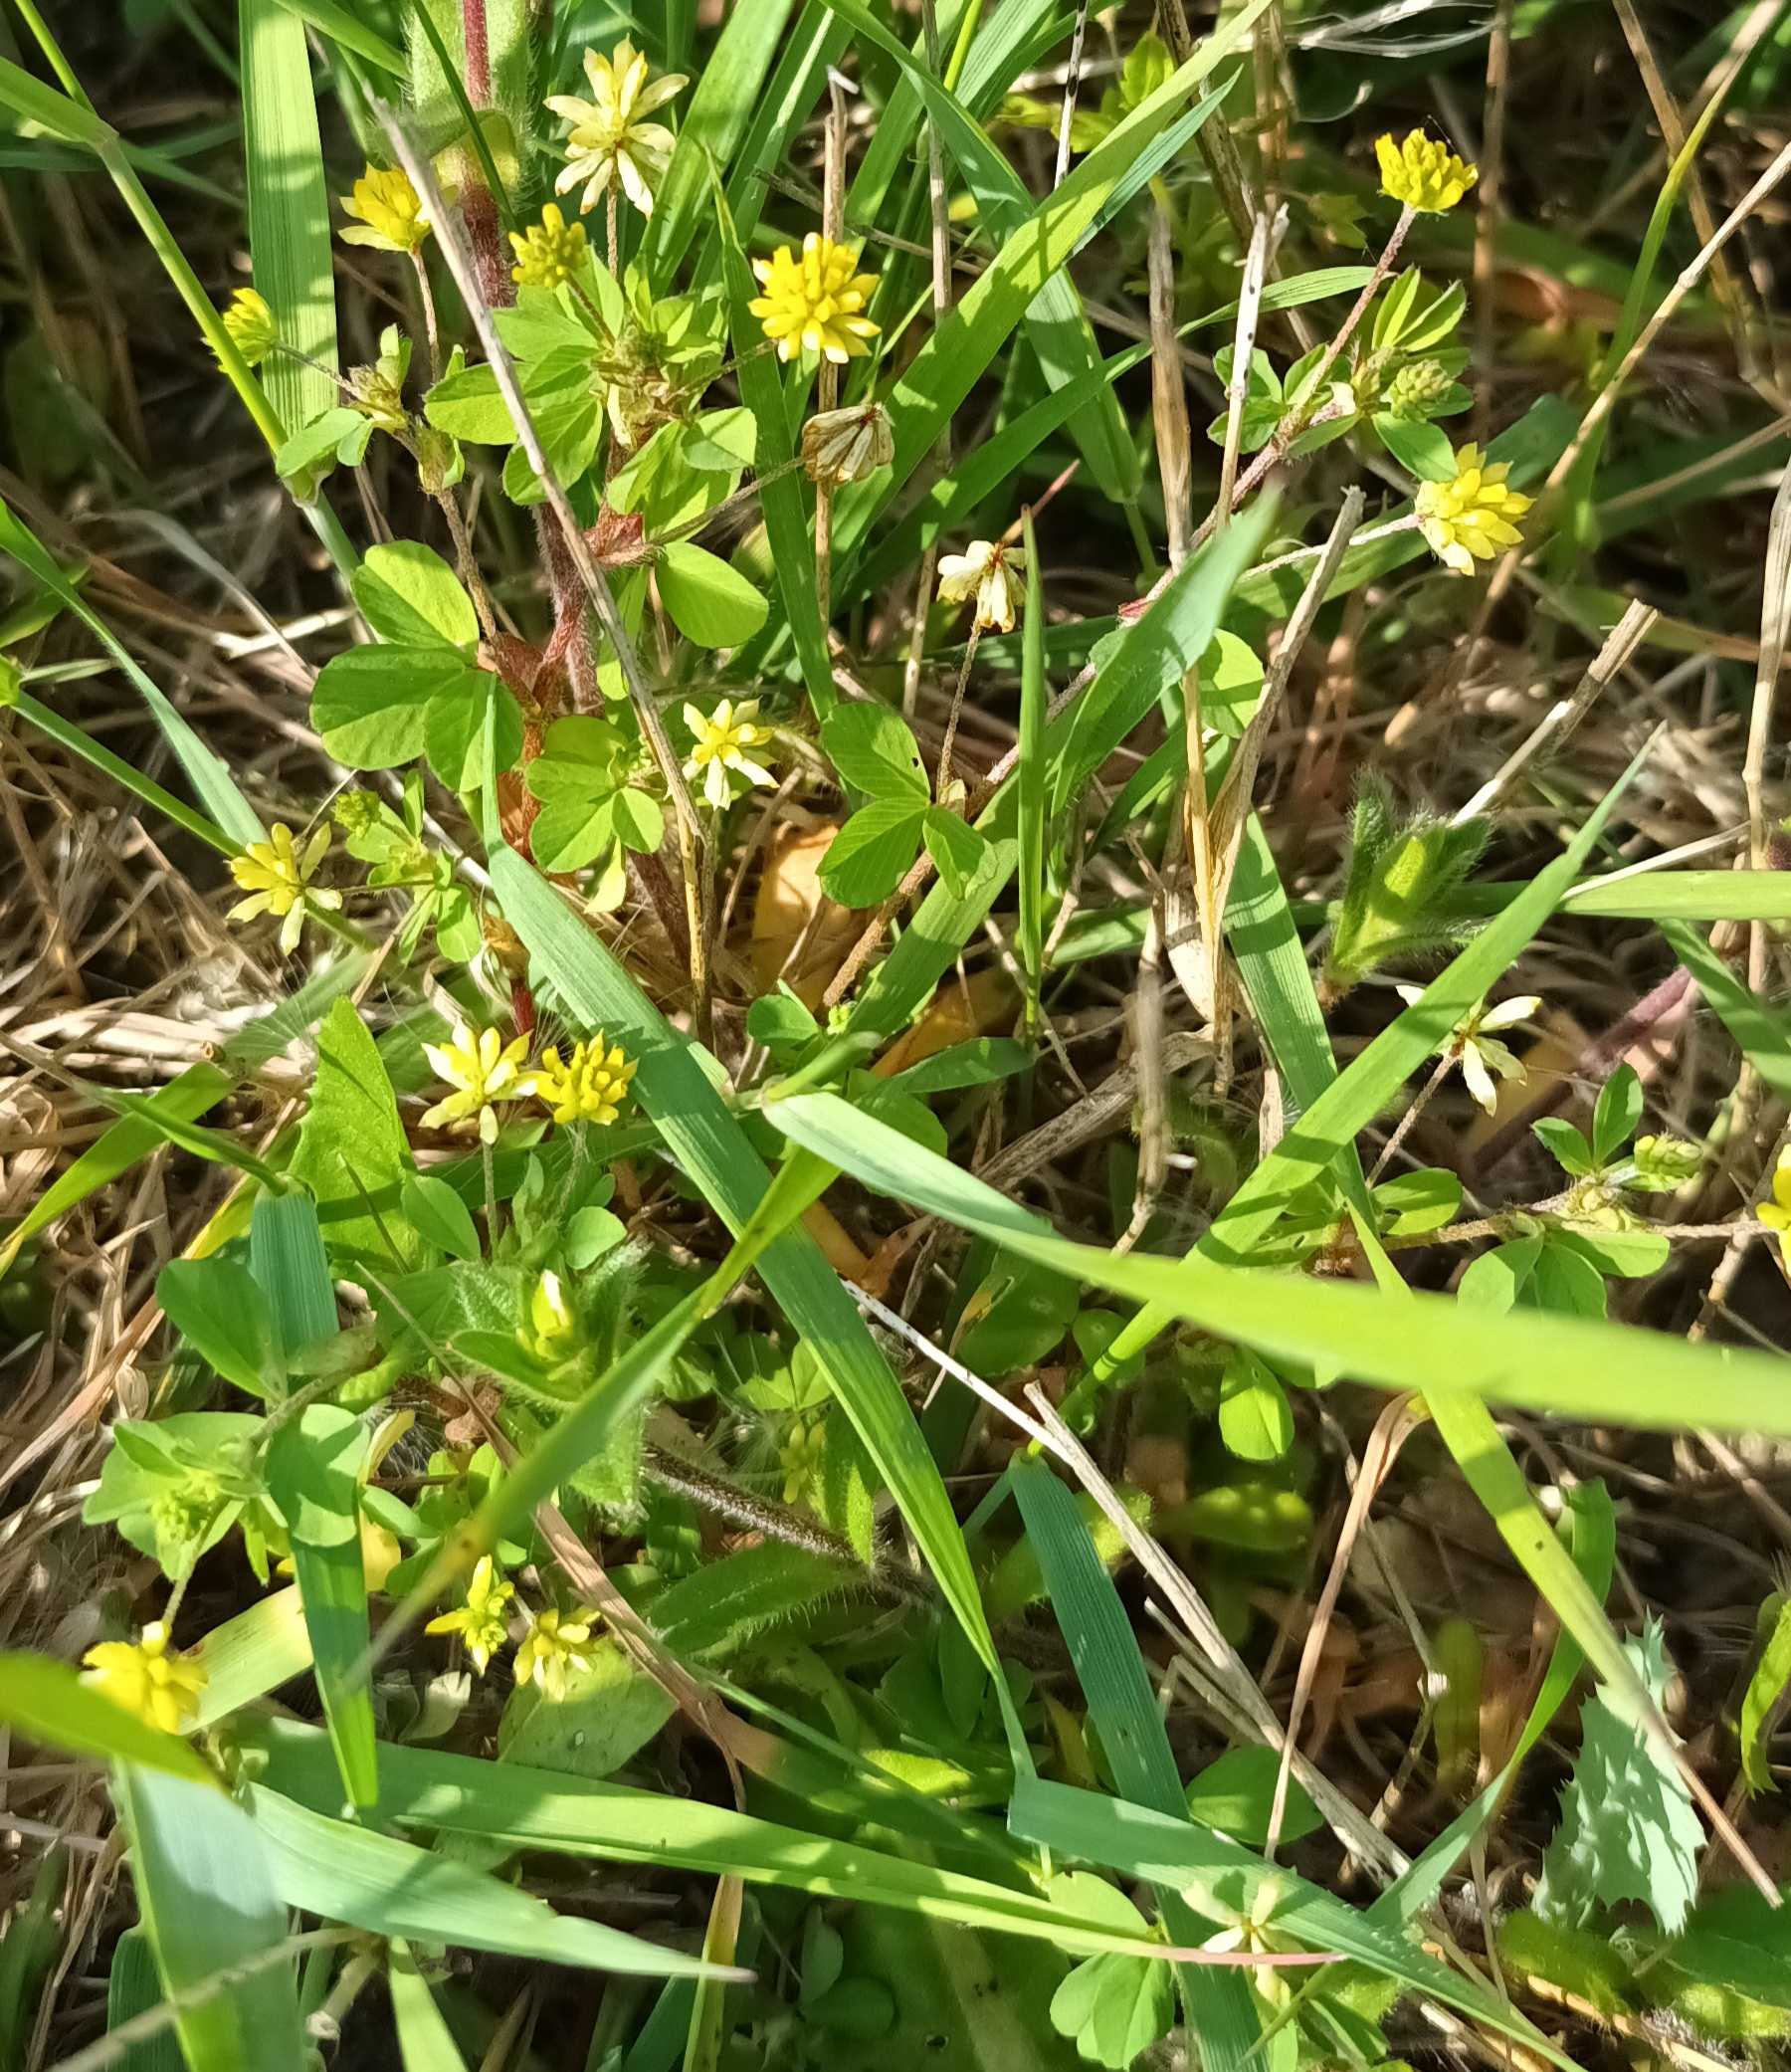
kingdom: Plantae
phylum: Tracheophyta
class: Magnoliopsida
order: Fabales
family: Fabaceae
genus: Trifolium
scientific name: Trifolium dubium
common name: Fin kløver
